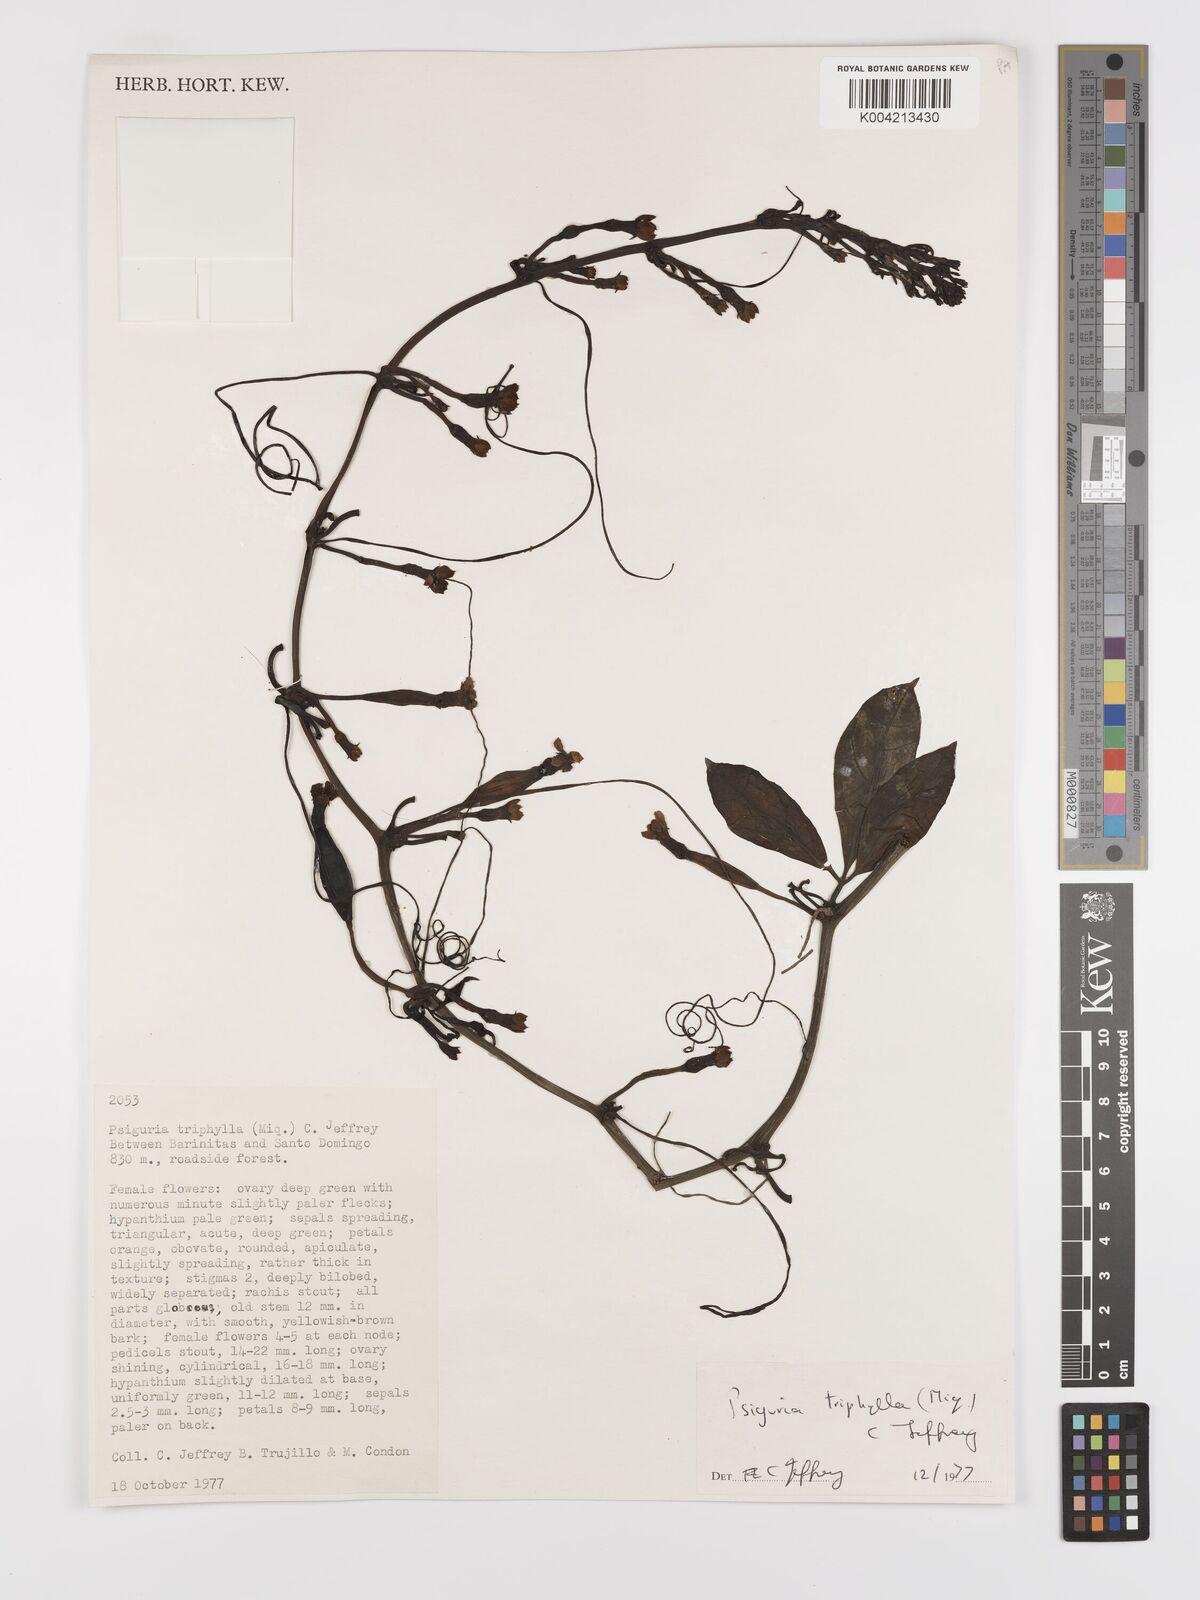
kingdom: Plantae
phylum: Tracheophyta
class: Magnoliopsida
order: Cucurbitales
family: Cucurbitaceae
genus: Psiguria
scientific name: Psiguria triphylla
